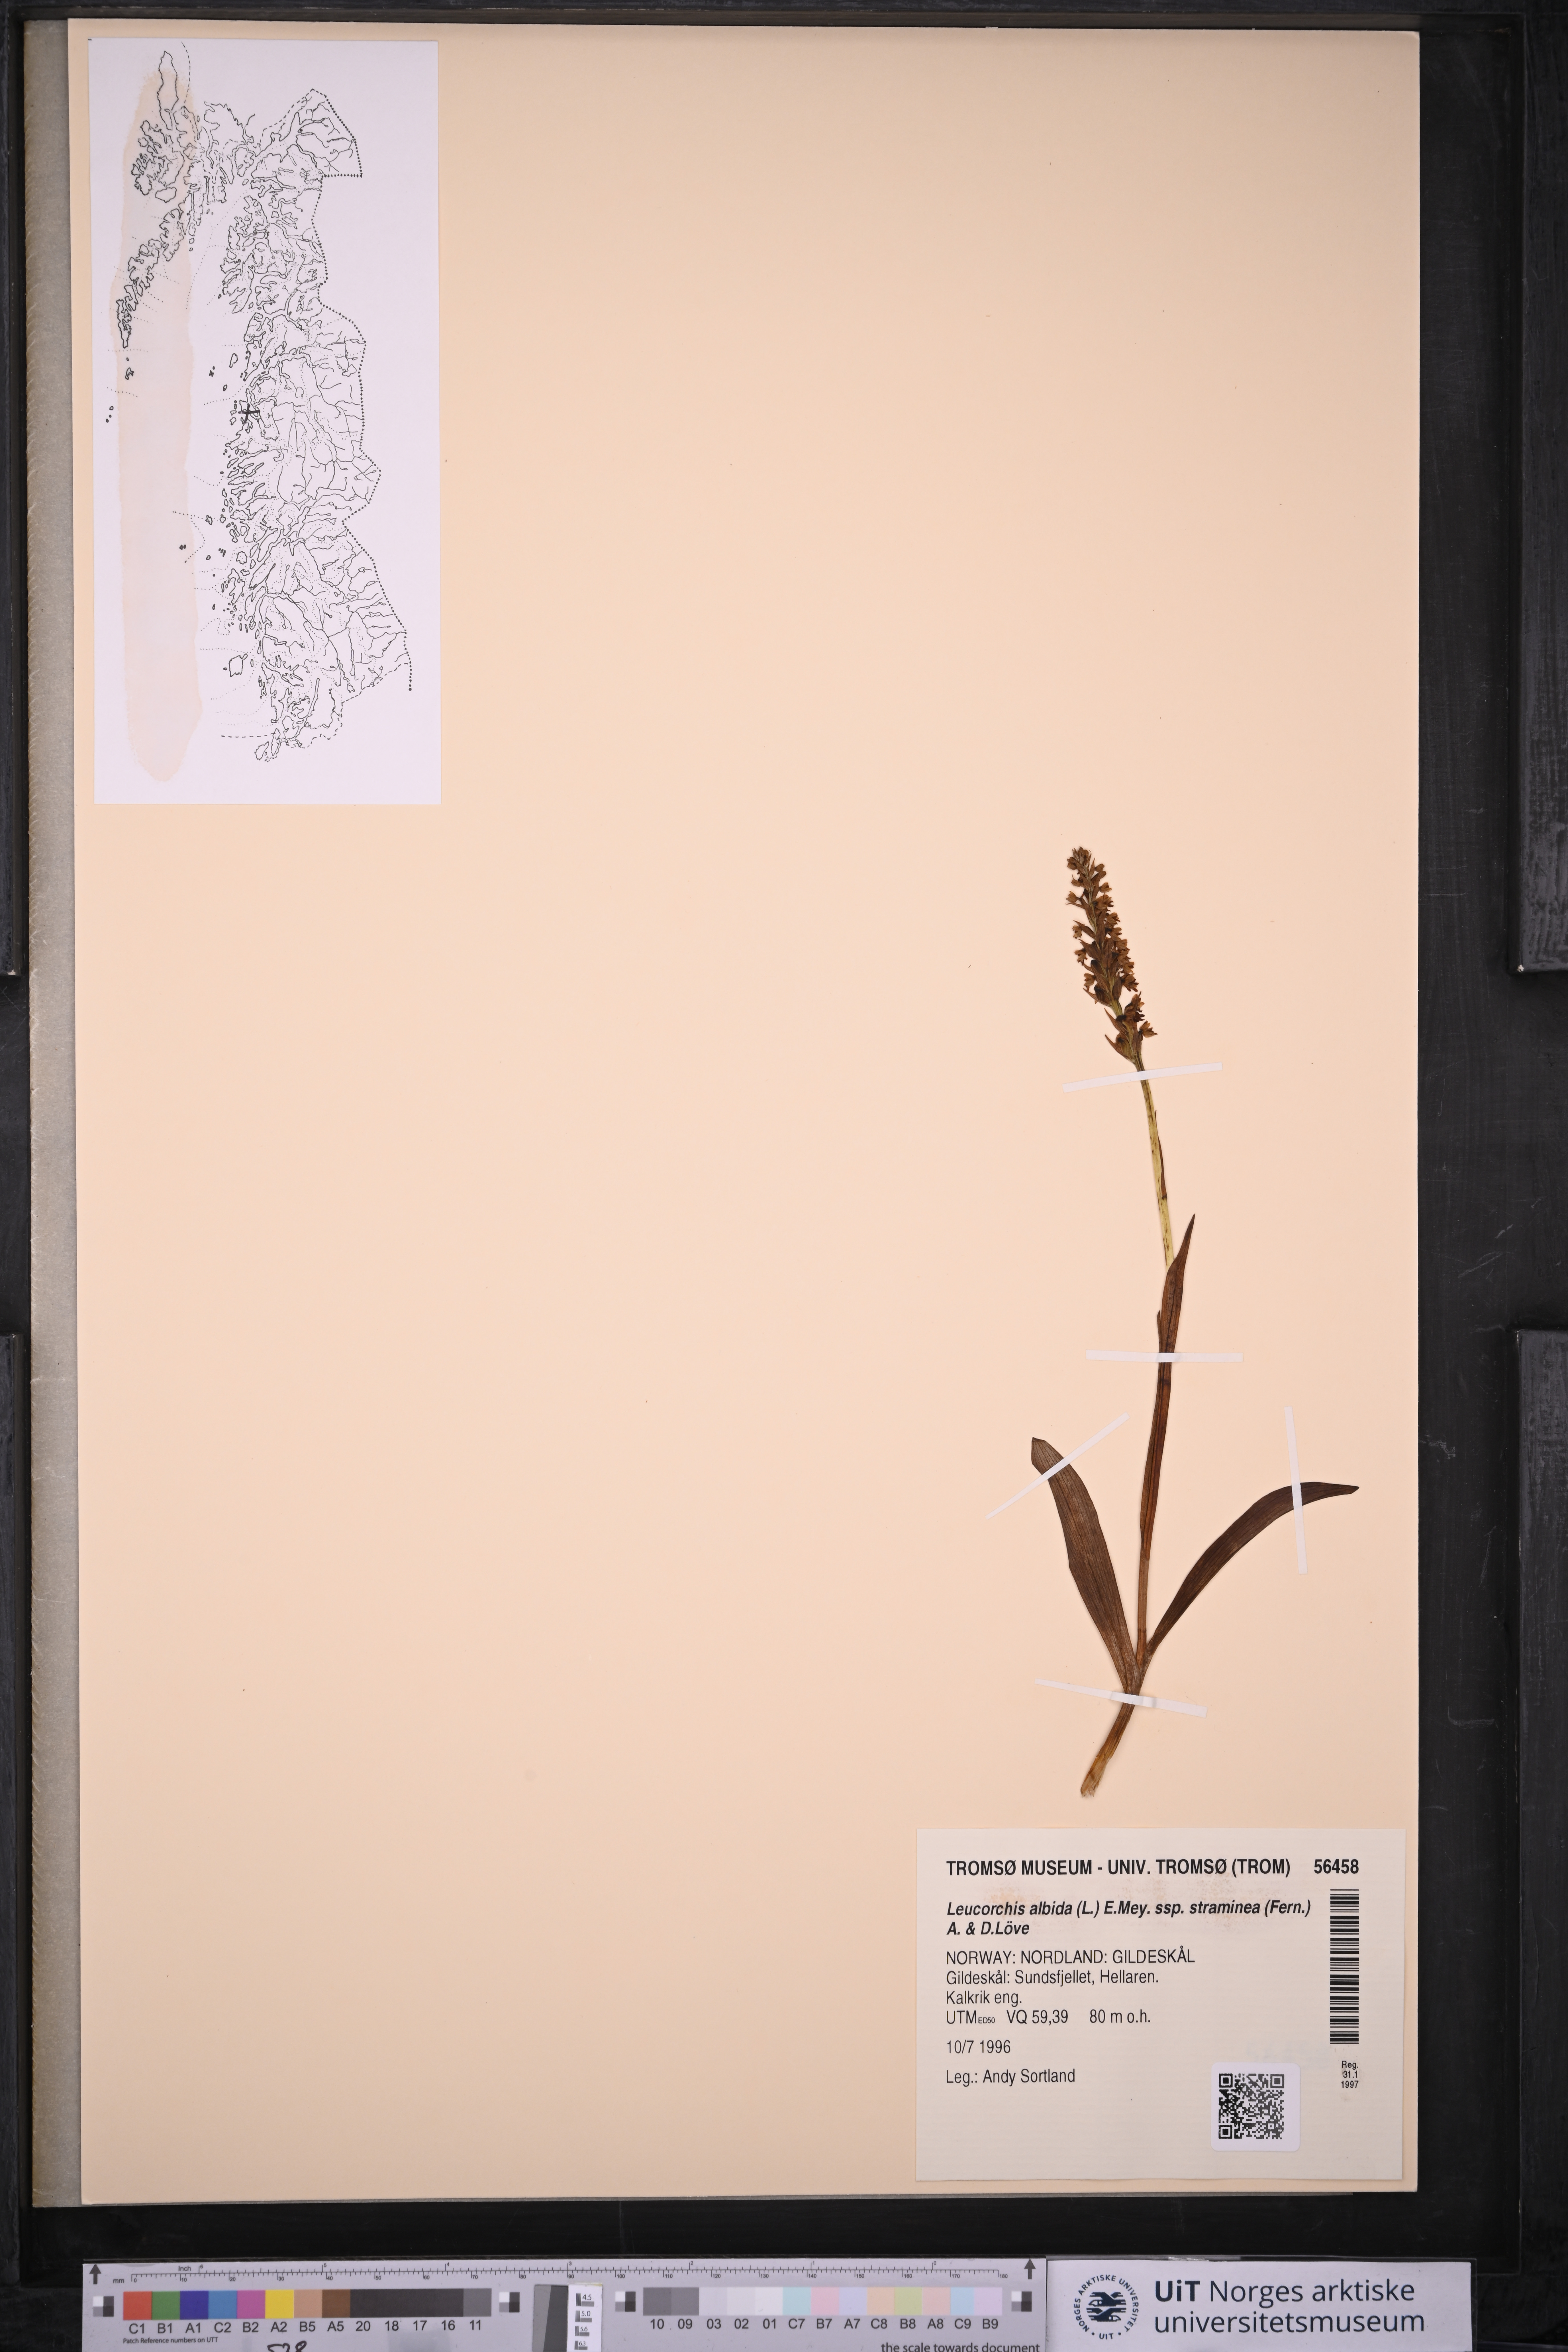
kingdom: Plantae
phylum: Tracheophyta
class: Liliopsida
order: Asparagales
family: Orchidaceae
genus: Pseudorchis
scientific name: Pseudorchis straminea
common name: Vanilla-scented bog orchid
